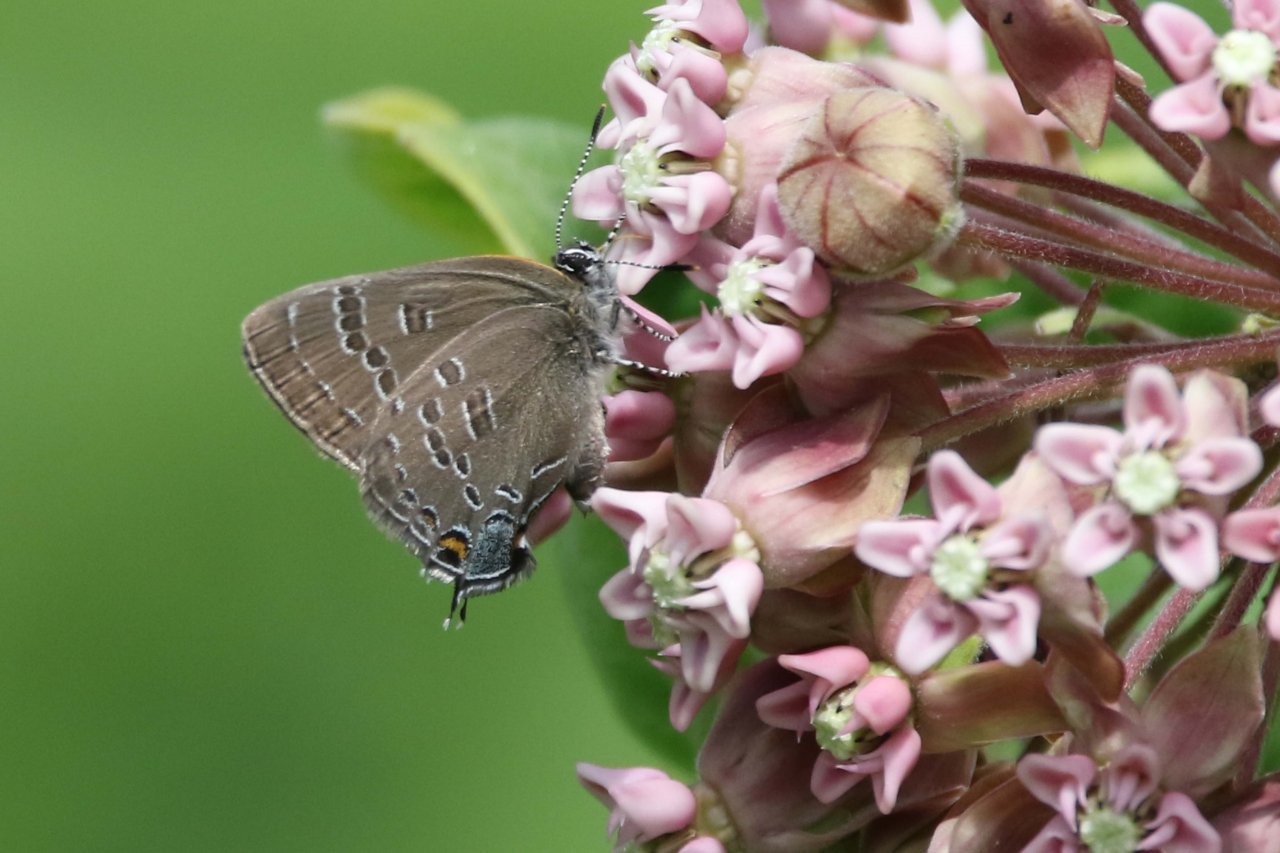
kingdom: Animalia
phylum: Arthropoda
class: Insecta
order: Lepidoptera
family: Lycaenidae
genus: Strymon
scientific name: Strymon caryaevorus
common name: Hickory Hairstreak
